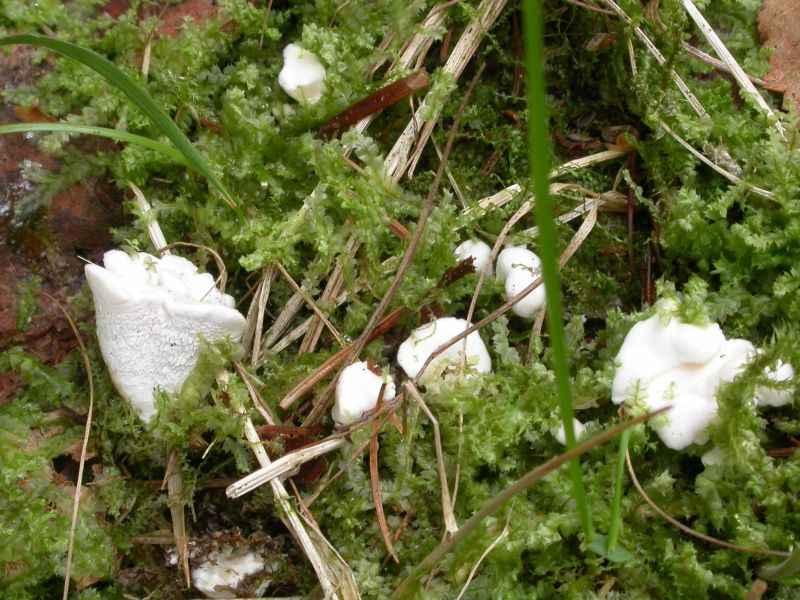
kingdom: Fungi
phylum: Basidiomycota
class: Agaricomycetes
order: Cantharellales
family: Hydnaceae
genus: Sistotrema
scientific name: Sistotrema confluens
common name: stilket kroneskorpe
